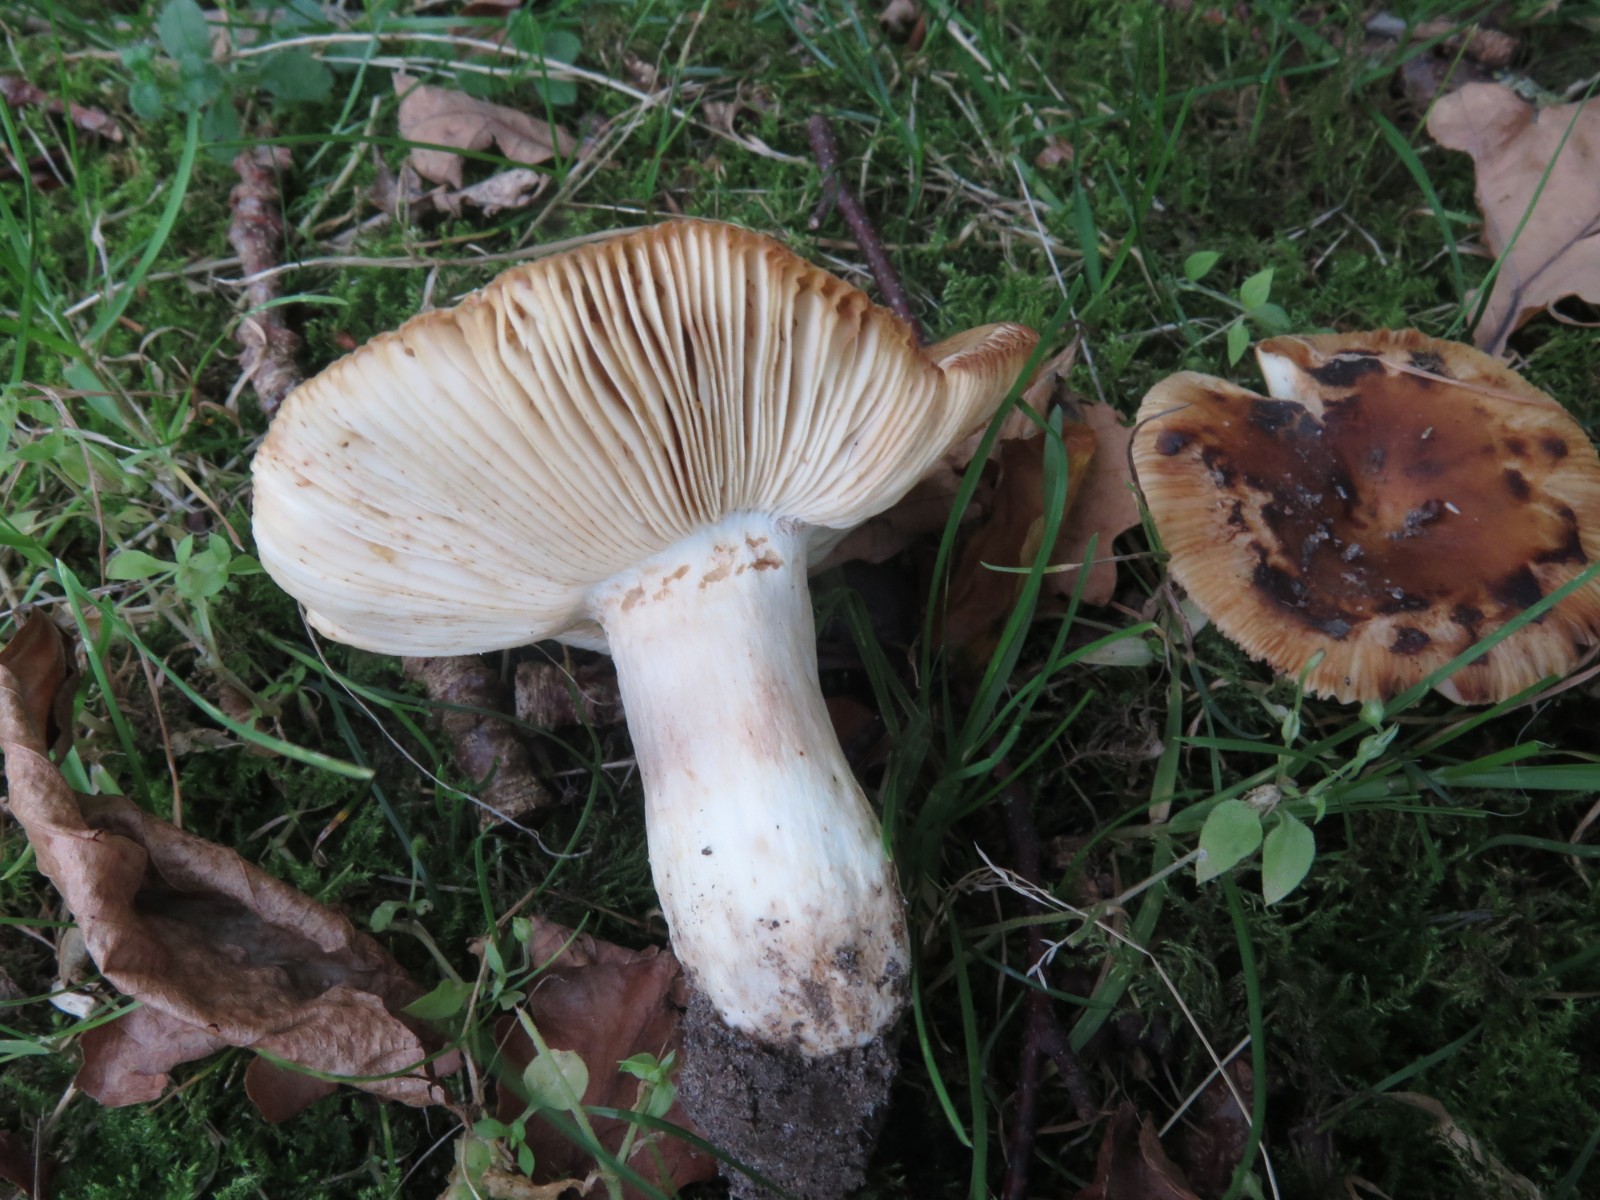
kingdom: Fungi
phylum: Basidiomycota
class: Agaricomycetes
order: Russulales
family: Russulaceae
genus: Russula
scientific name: Russula foetens
